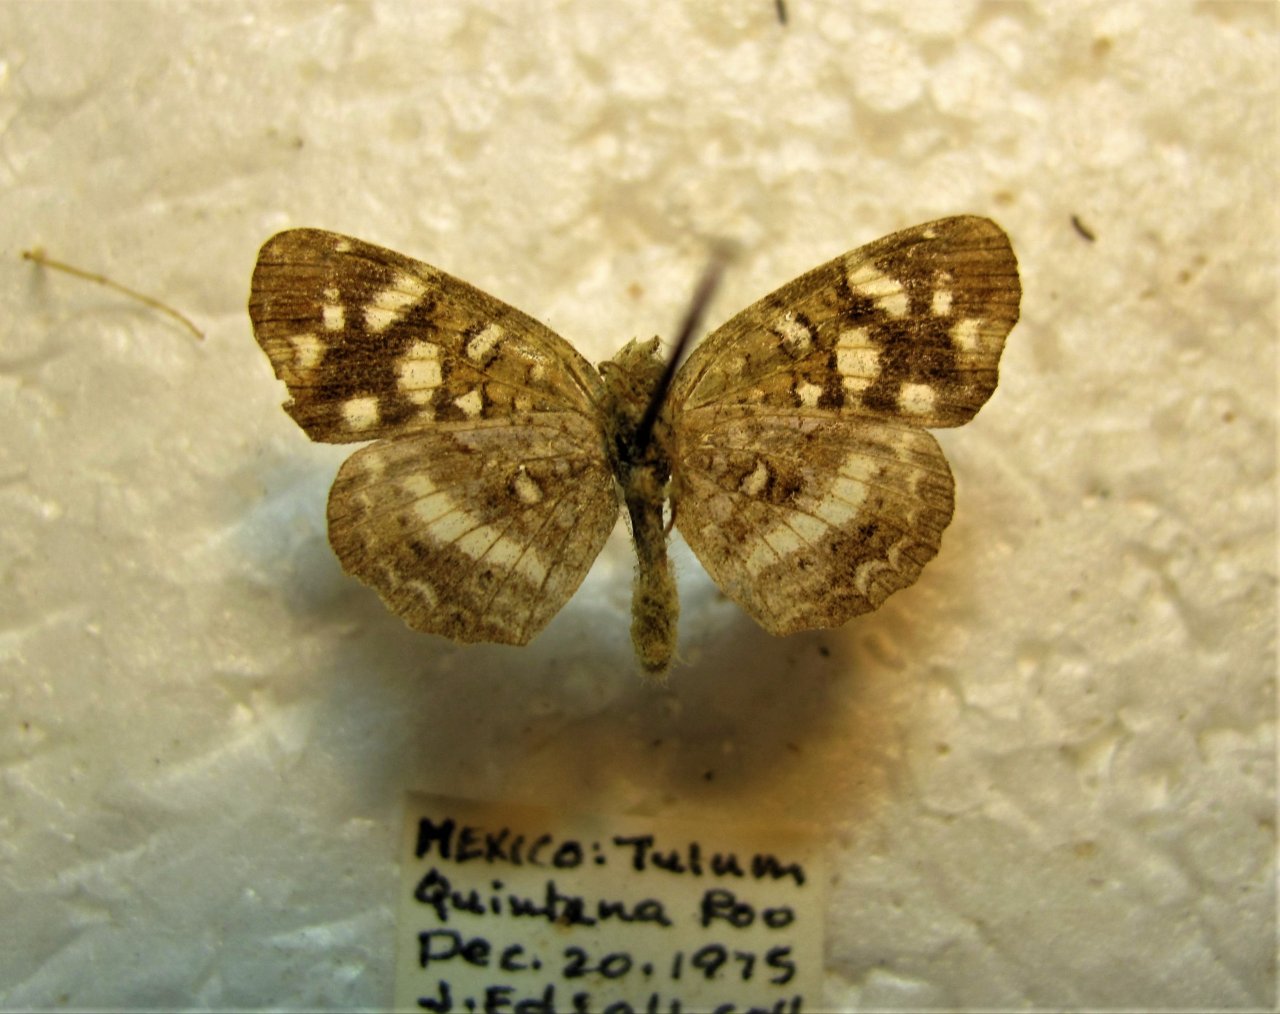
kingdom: Animalia
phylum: Arthropoda
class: Insecta
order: Lepidoptera
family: Nymphalidae
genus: Anthanassa
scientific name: Anthanassa tulcis
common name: Pale-banded Crescent
